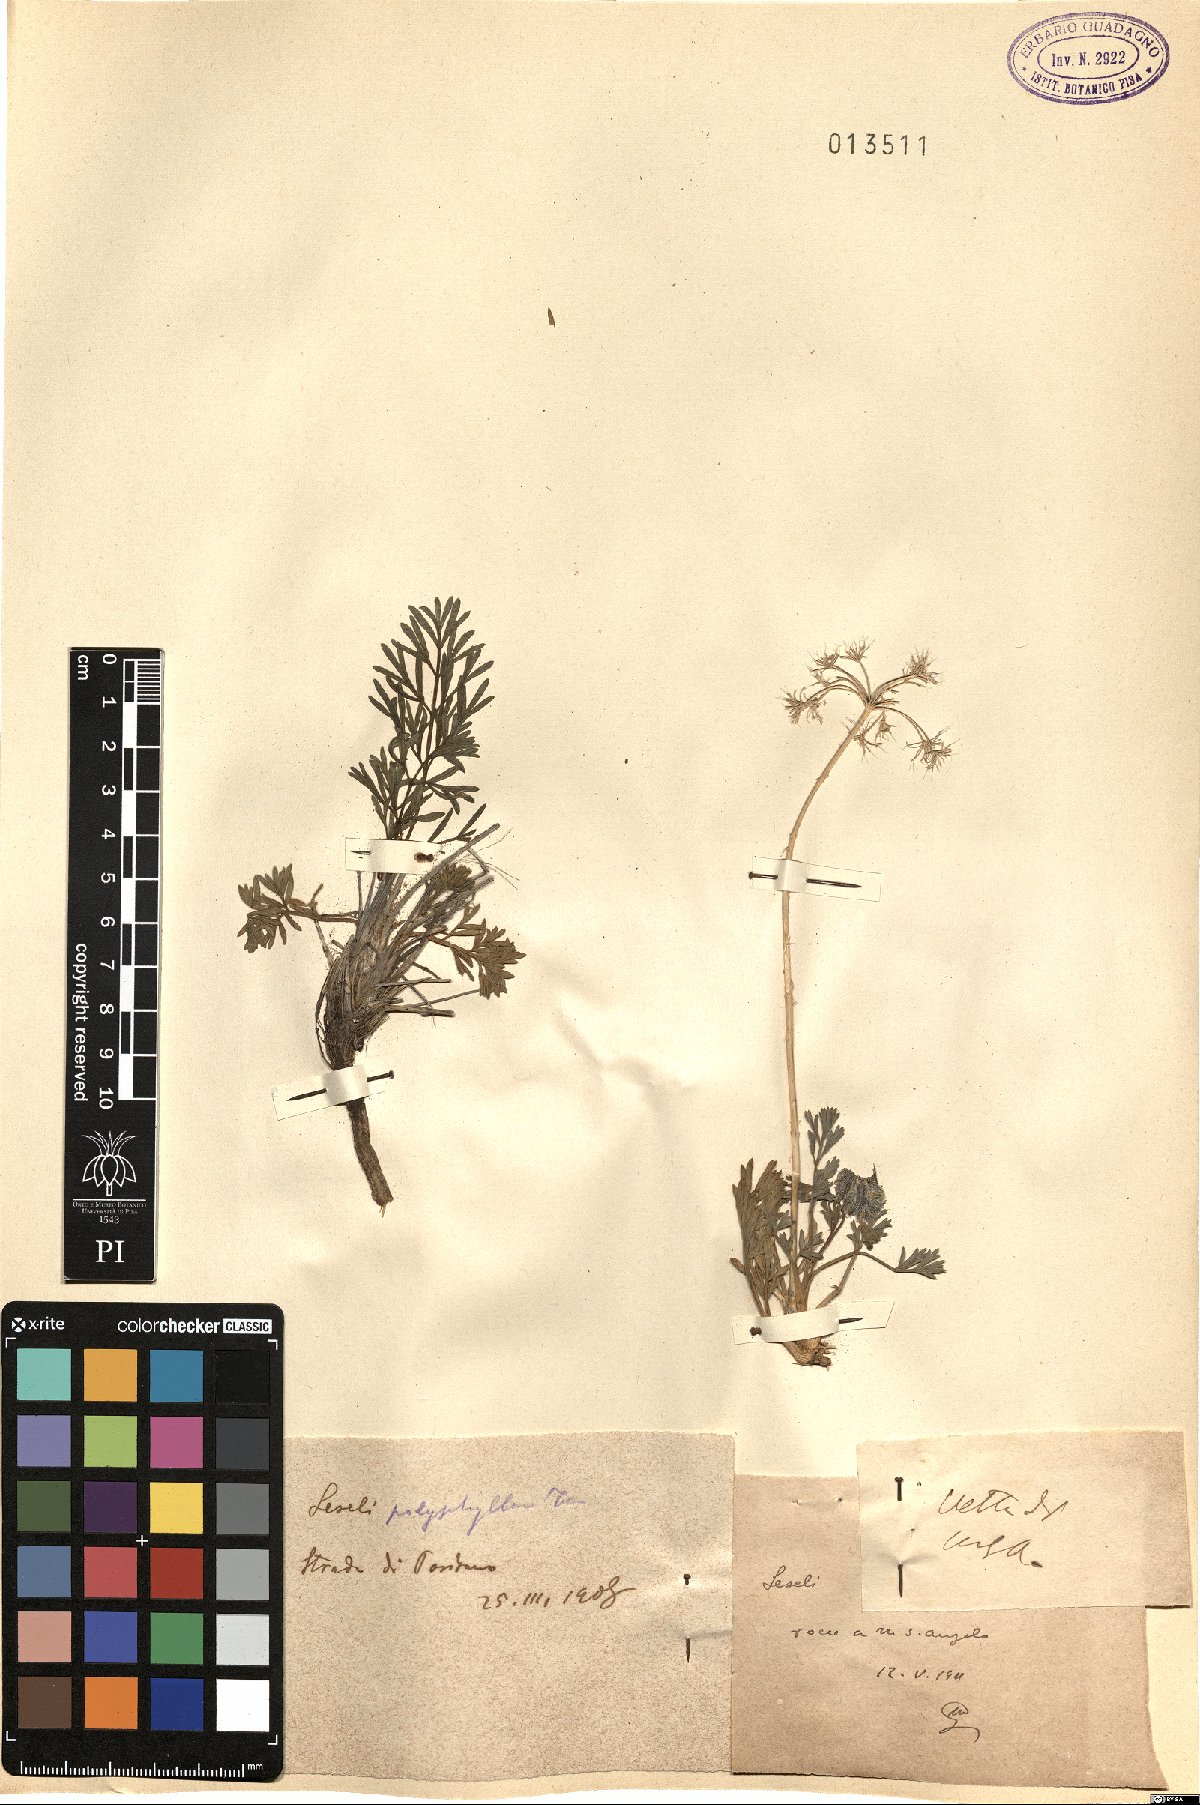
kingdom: Plantae
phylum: Tracheophyta
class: Magnoliopsida
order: Apiales
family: Apiaceae
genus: Seseli
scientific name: Seseli polyphyllum
